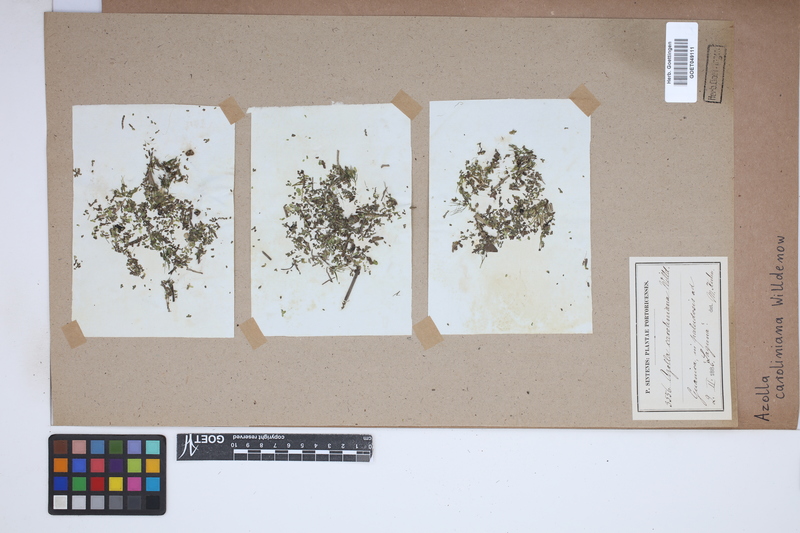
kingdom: Plantae
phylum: Tracheophyta
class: Polypodiopsida
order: Salviniales
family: Salviniaceae
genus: Azolla
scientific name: Azolla caroliniana
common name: Carolina mosquitofern
